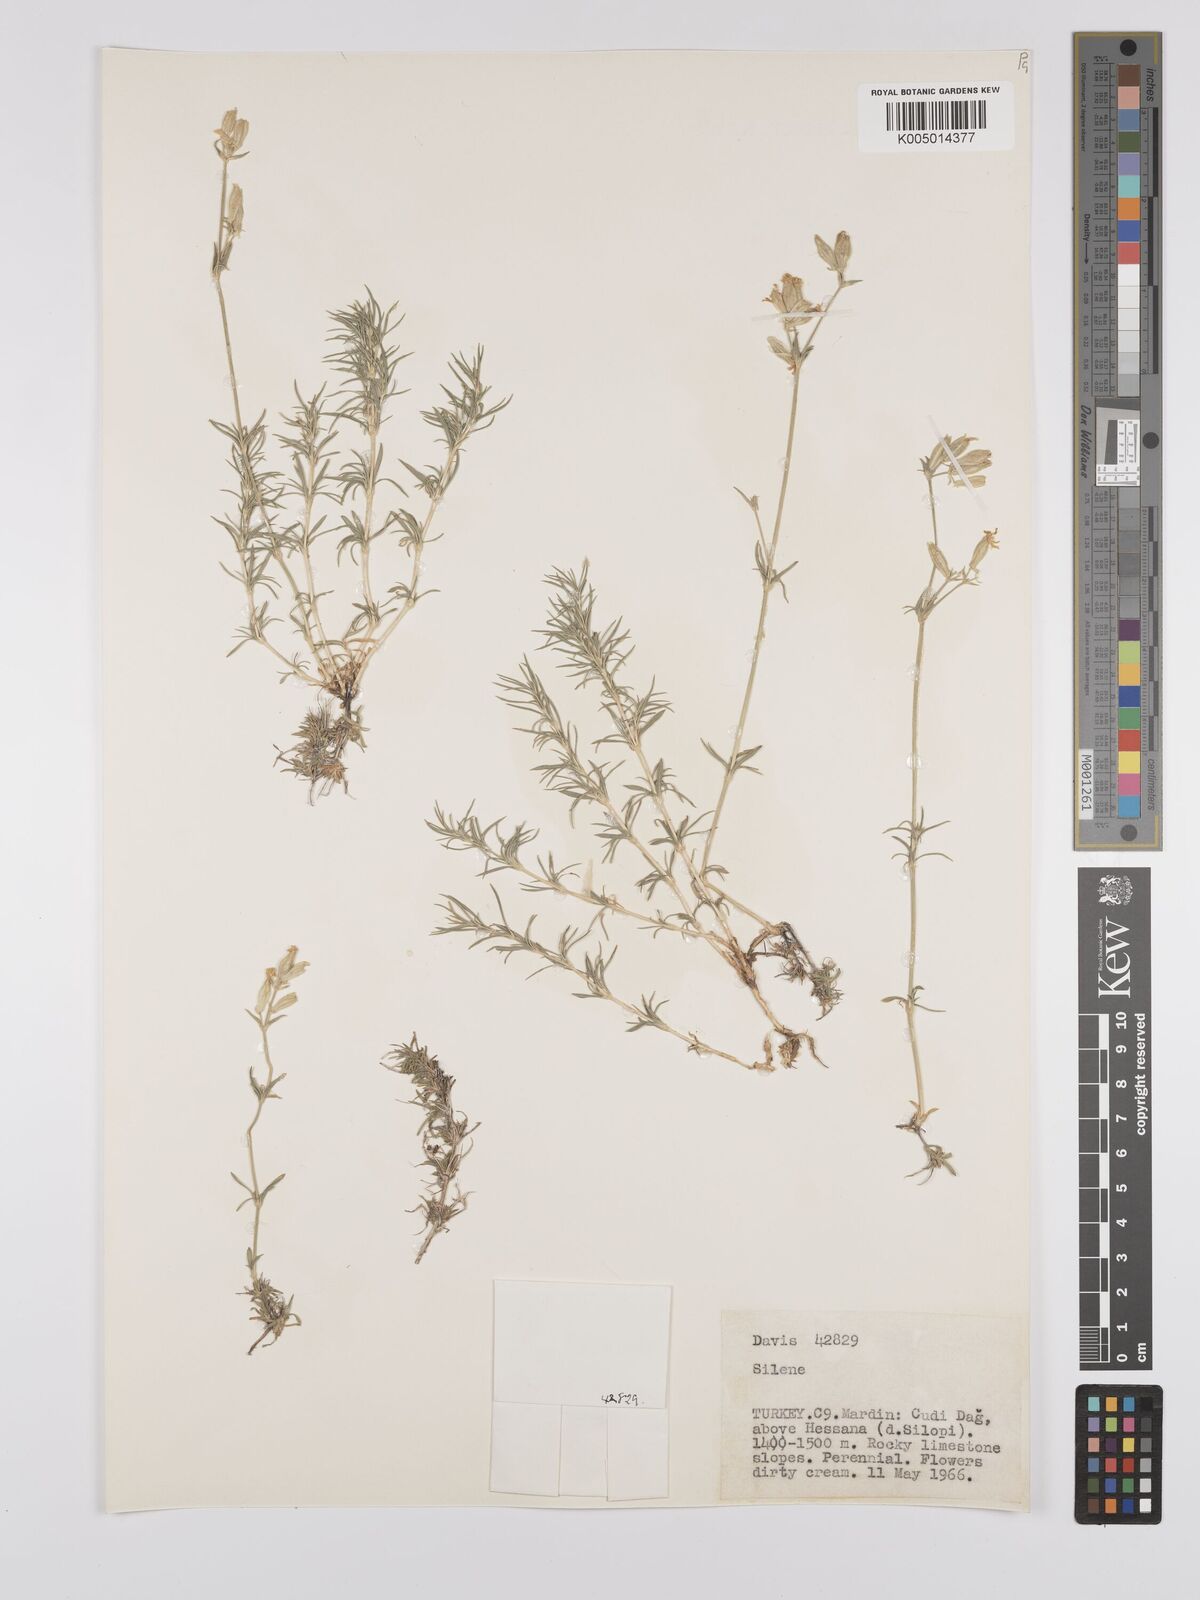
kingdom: Plantae
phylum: Tracheophyta
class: Magnoliopsida
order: Caryophyllales
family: Caryophyllaceae
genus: Silene
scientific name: Silene
